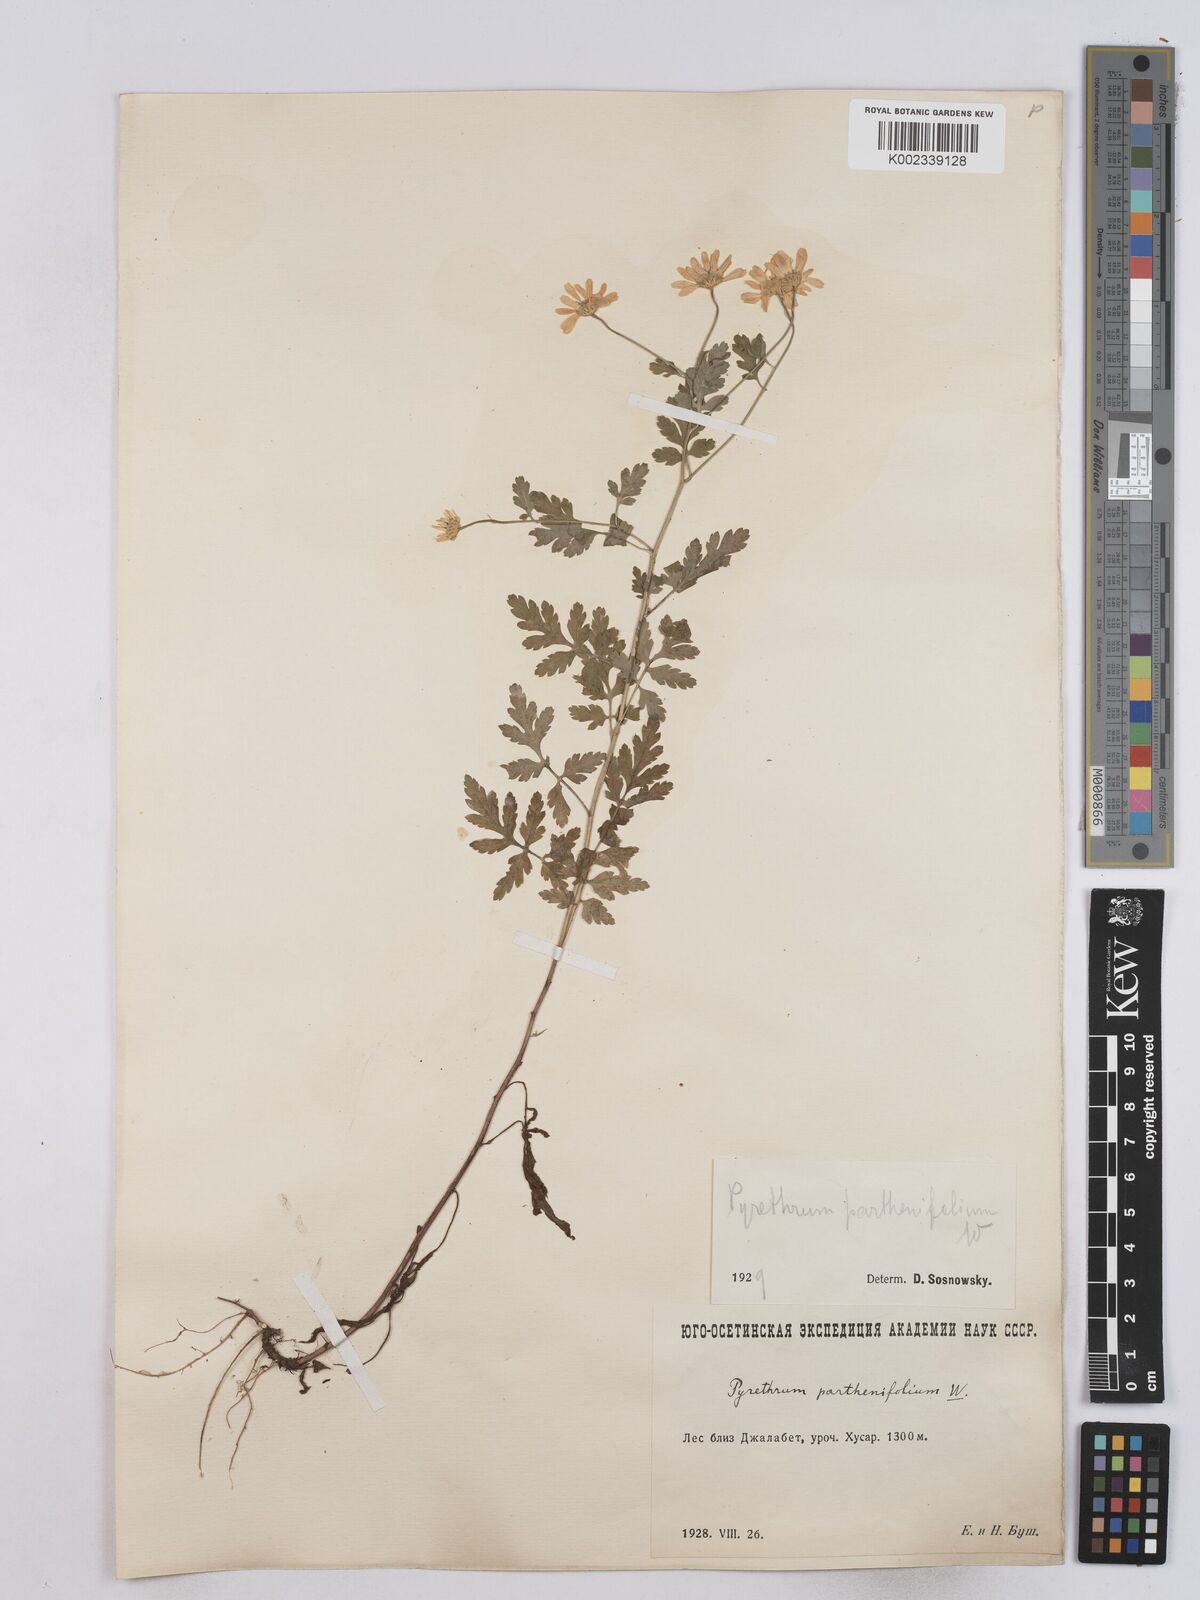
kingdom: Plantae
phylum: Tracheophyta
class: Magnoliopsida
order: Asterales
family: Asteraceae
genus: Tanacetum
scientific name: Tanacetum partheniifolium
